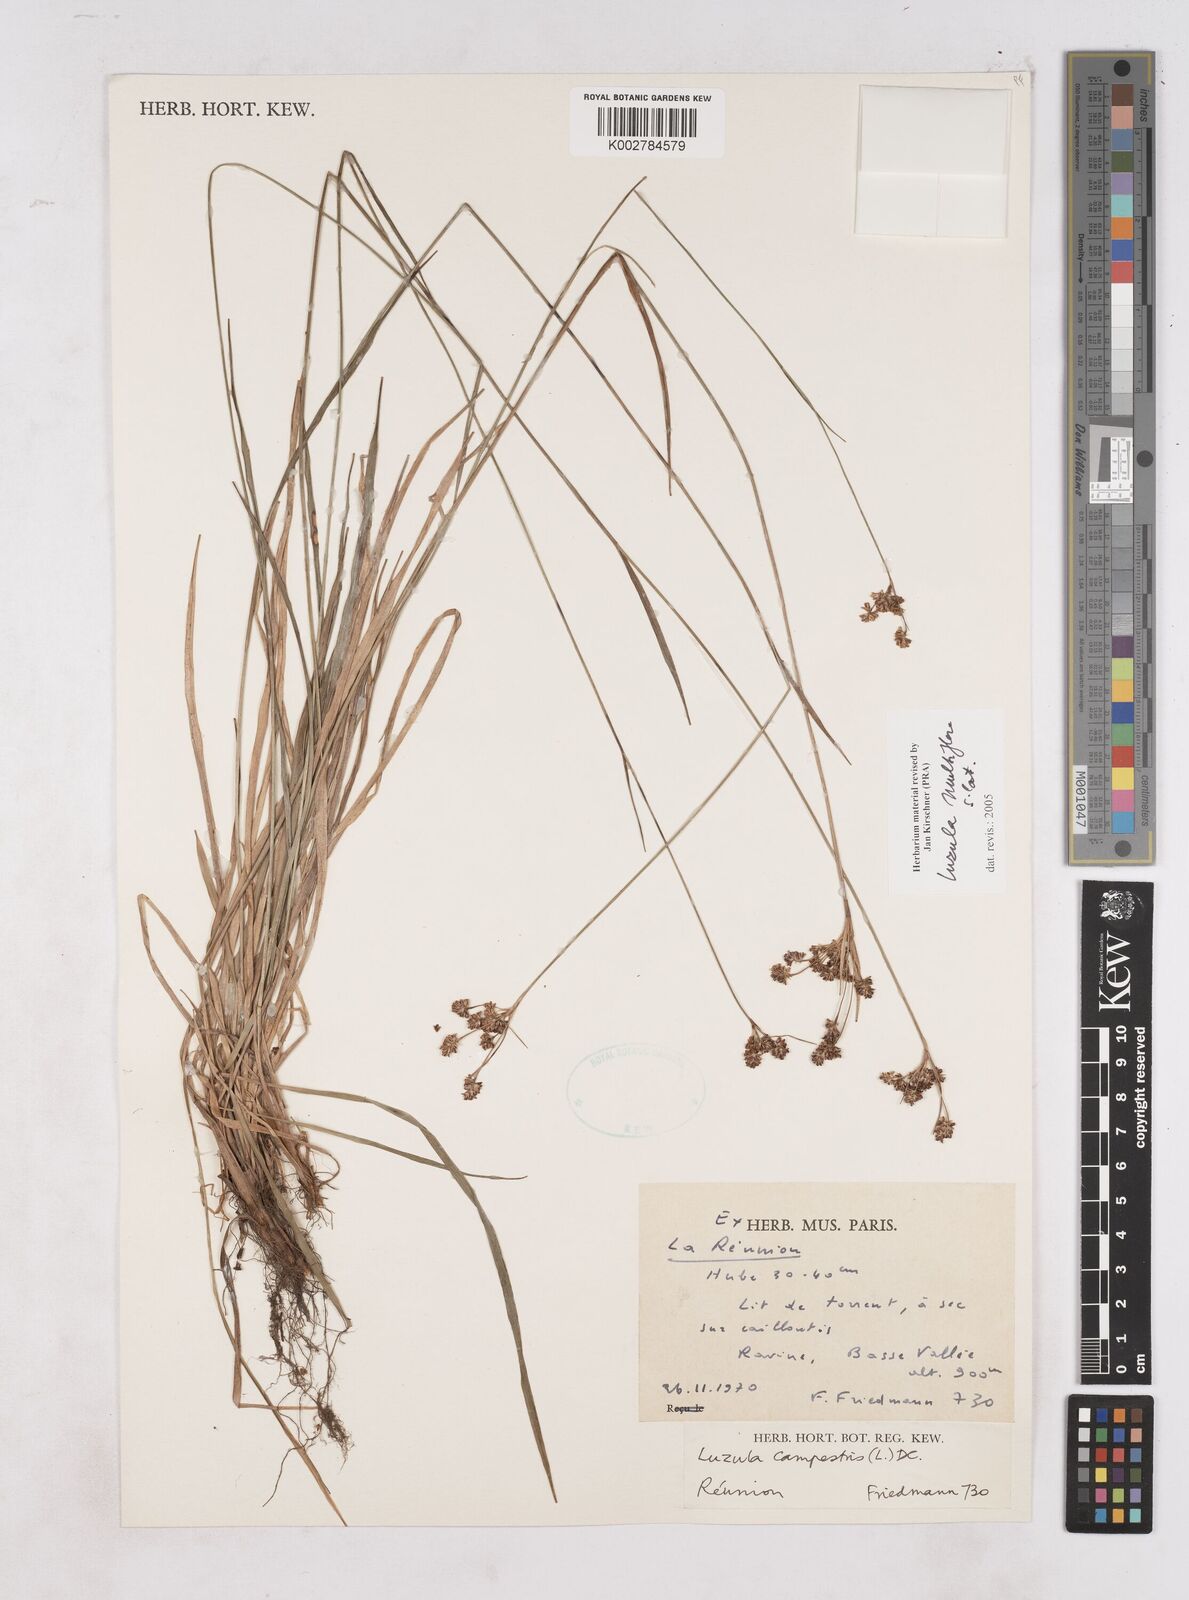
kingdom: Plantae
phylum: Tracheophyta
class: Liliopsida
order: Poales
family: Juncaceae
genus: Luzula
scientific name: Luzula multiflora
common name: Heath wood-rush
